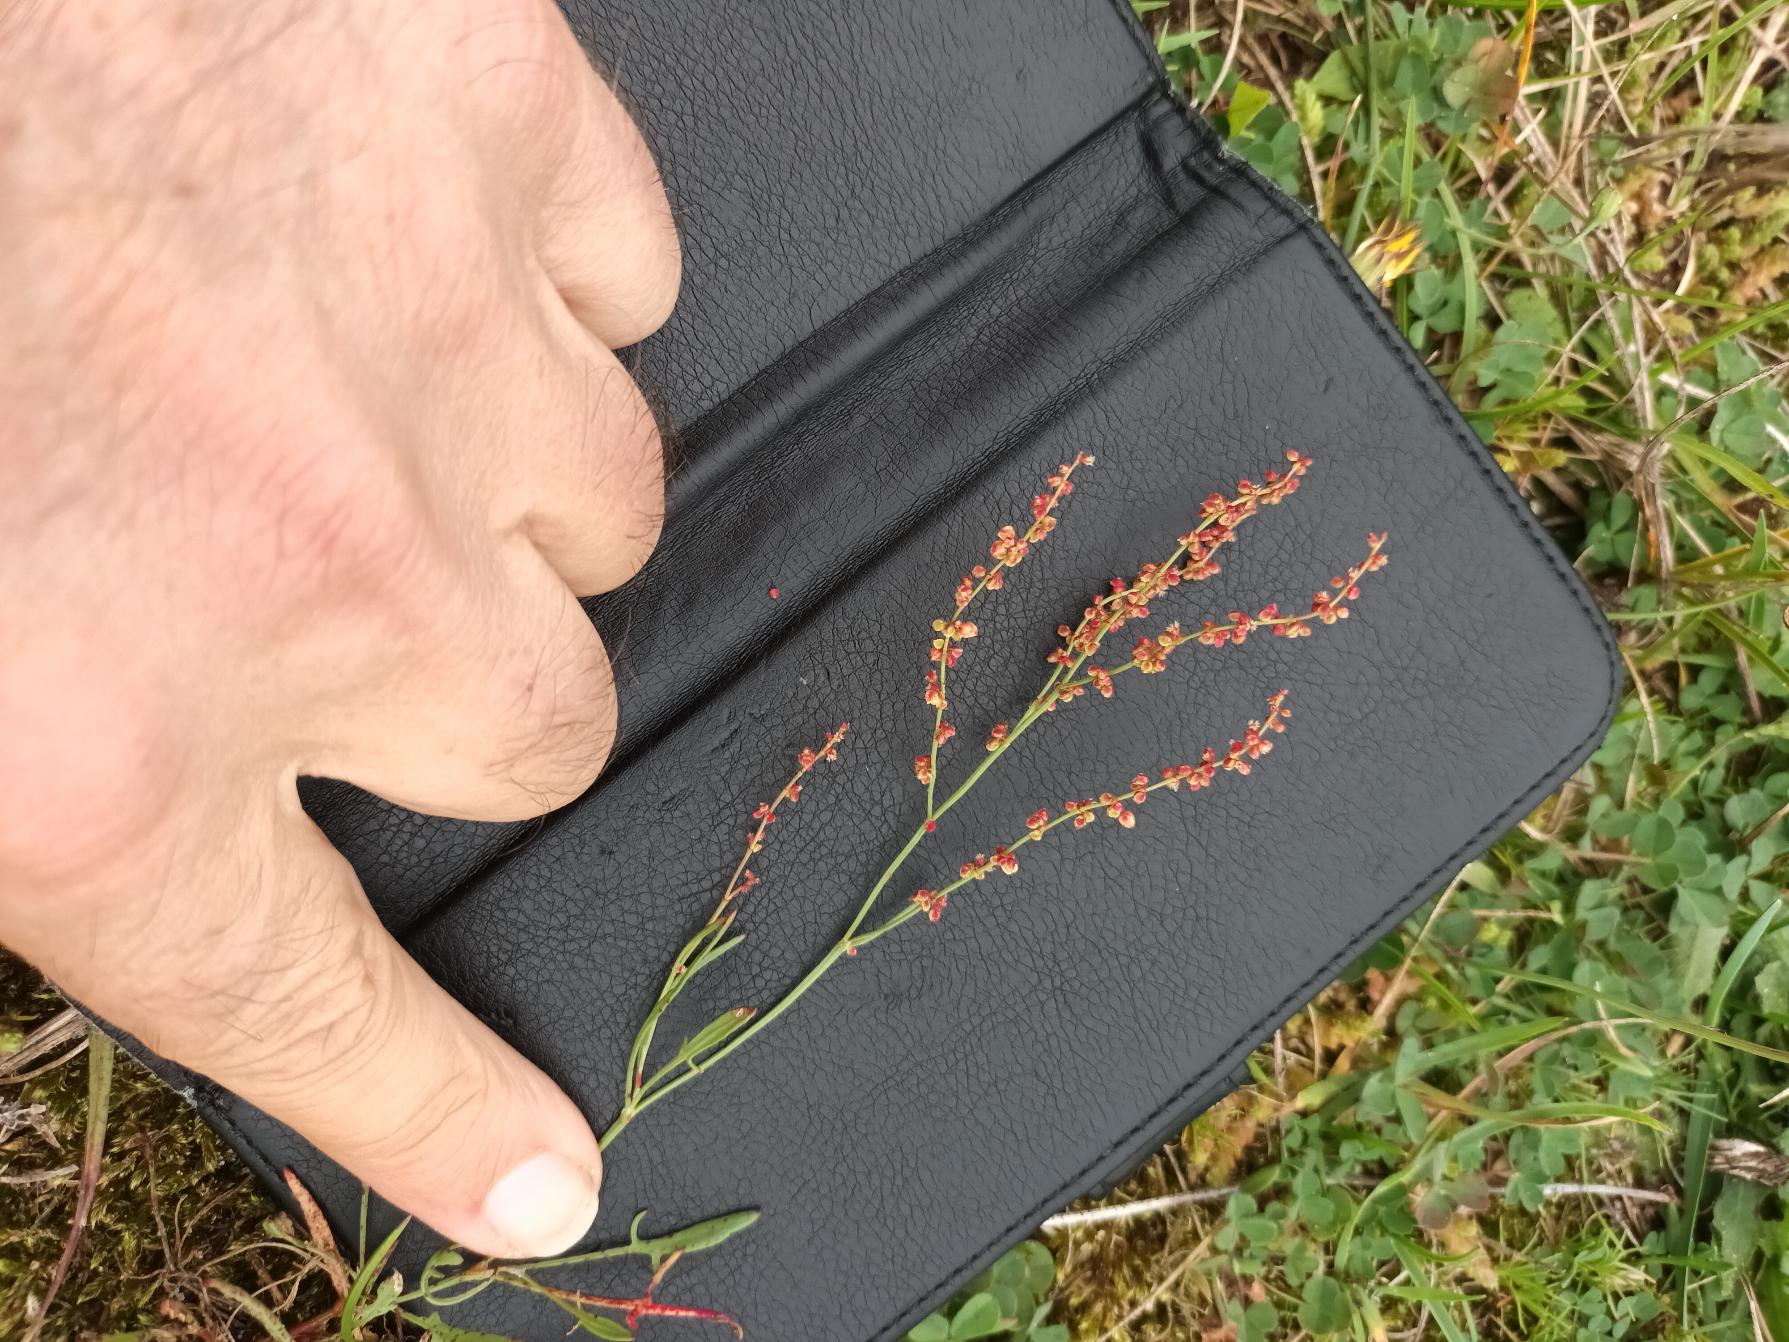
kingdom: Plantae
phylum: Tracheophyta
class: Magnoliopsida
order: Caryophyllales
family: Polygonaceae
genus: Rumex
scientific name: Rumex acetosella
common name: Rødknæ
